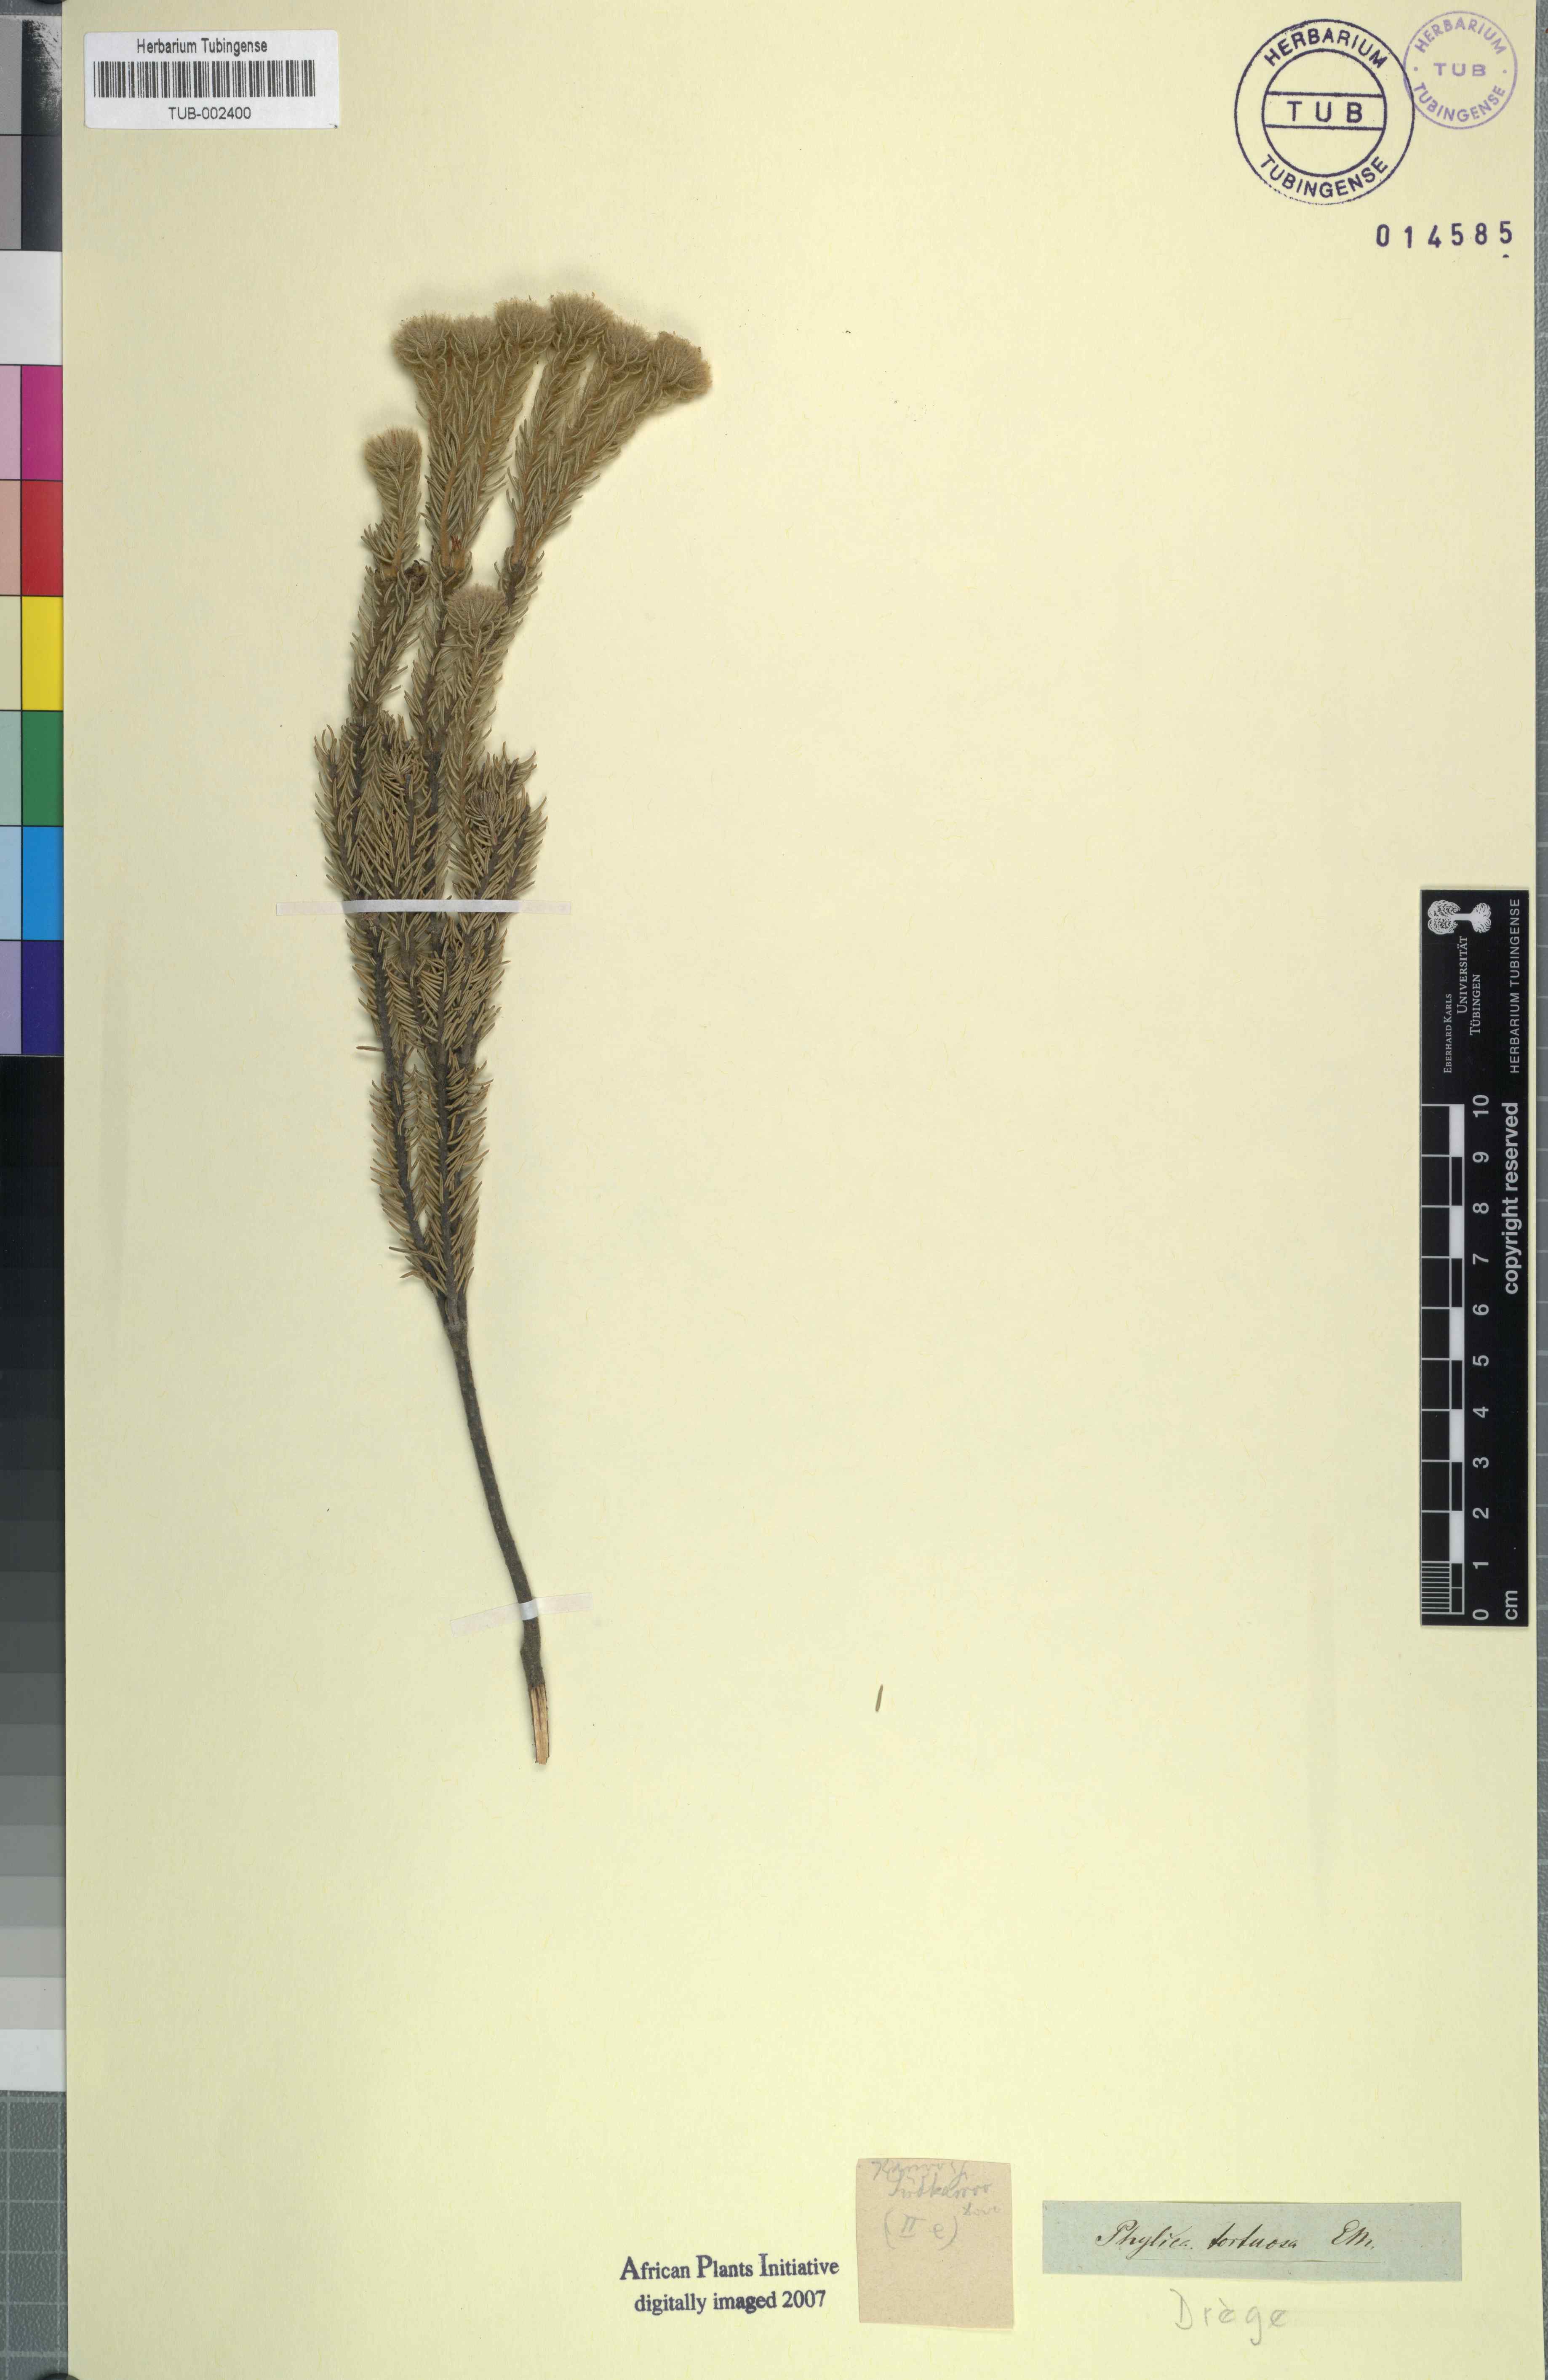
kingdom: Plantae
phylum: Tracheophyta
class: Magnoliopsida
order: Rosales
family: Rhamnaceae
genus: Phylica
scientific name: Phylica tortuosa
